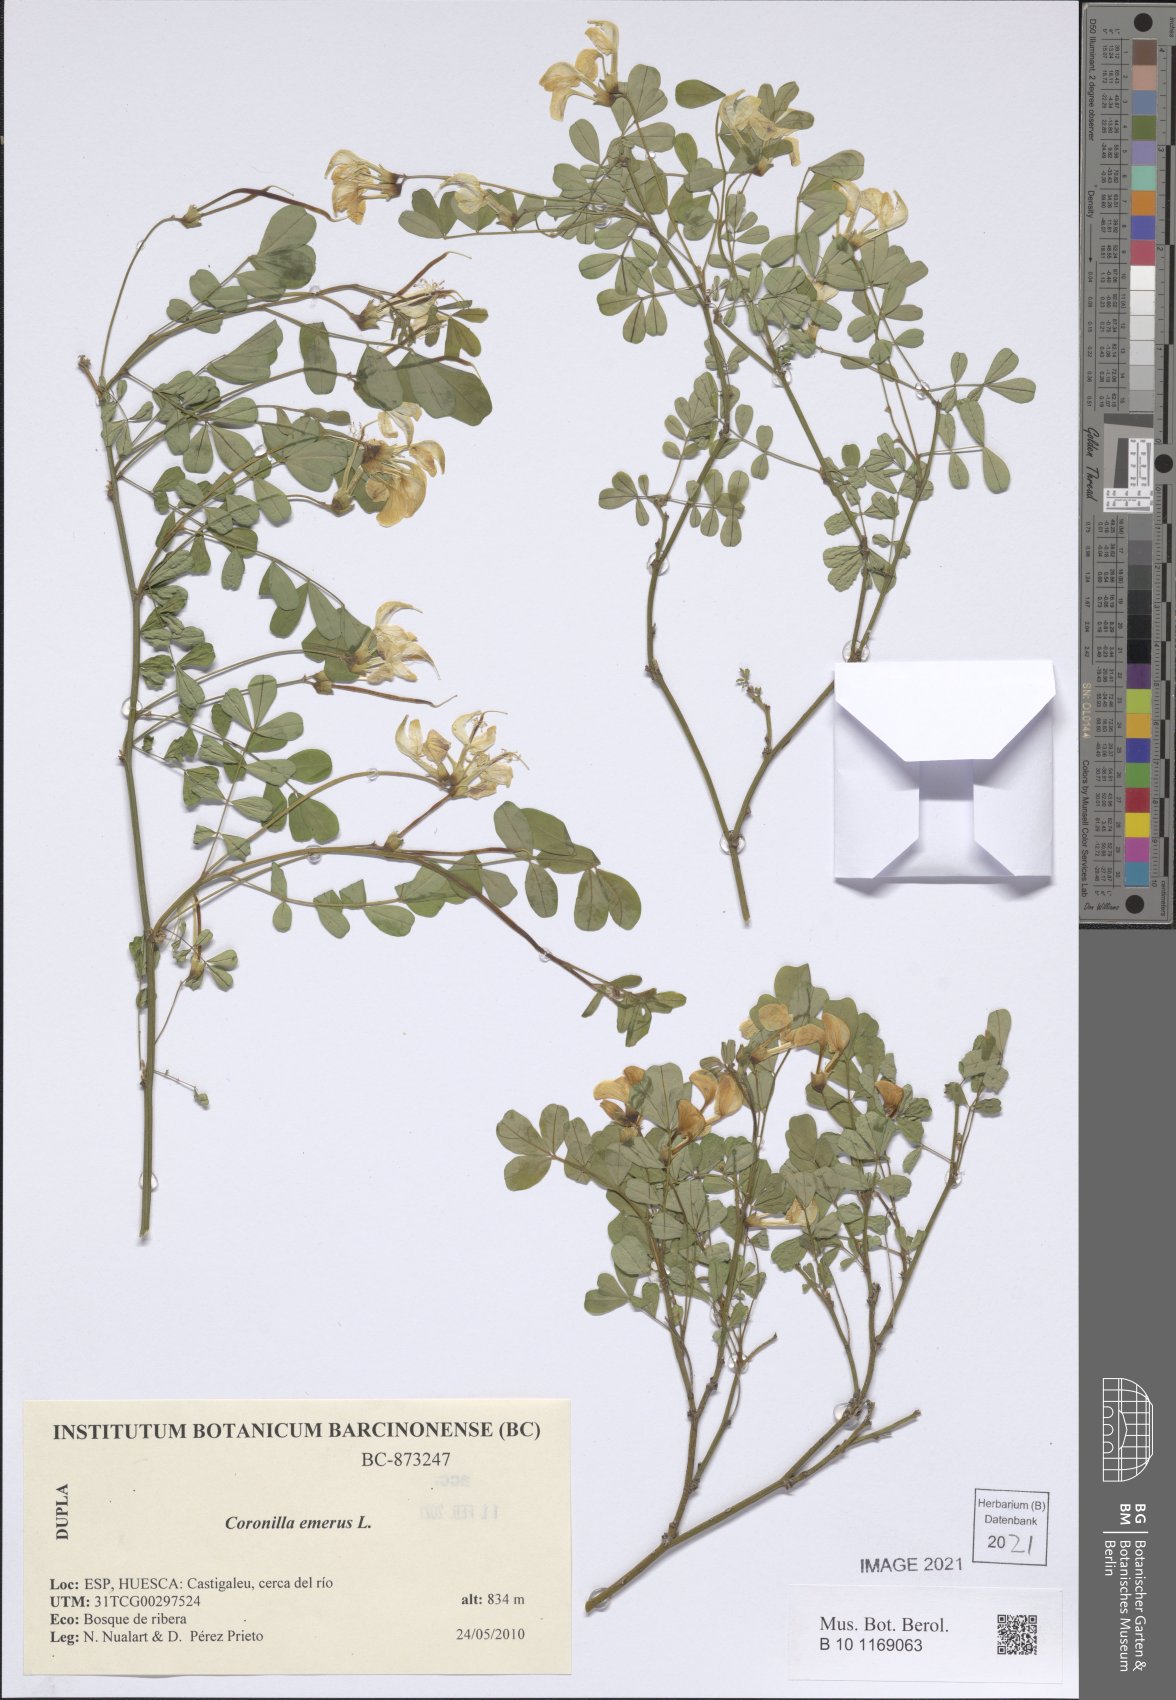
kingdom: Plantae
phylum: Tracheophyta
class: Magnoliopsida
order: Fabales
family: Fabaceae
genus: Hippocrepis
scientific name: Hippocrepis emerus
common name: Scorpion senna
